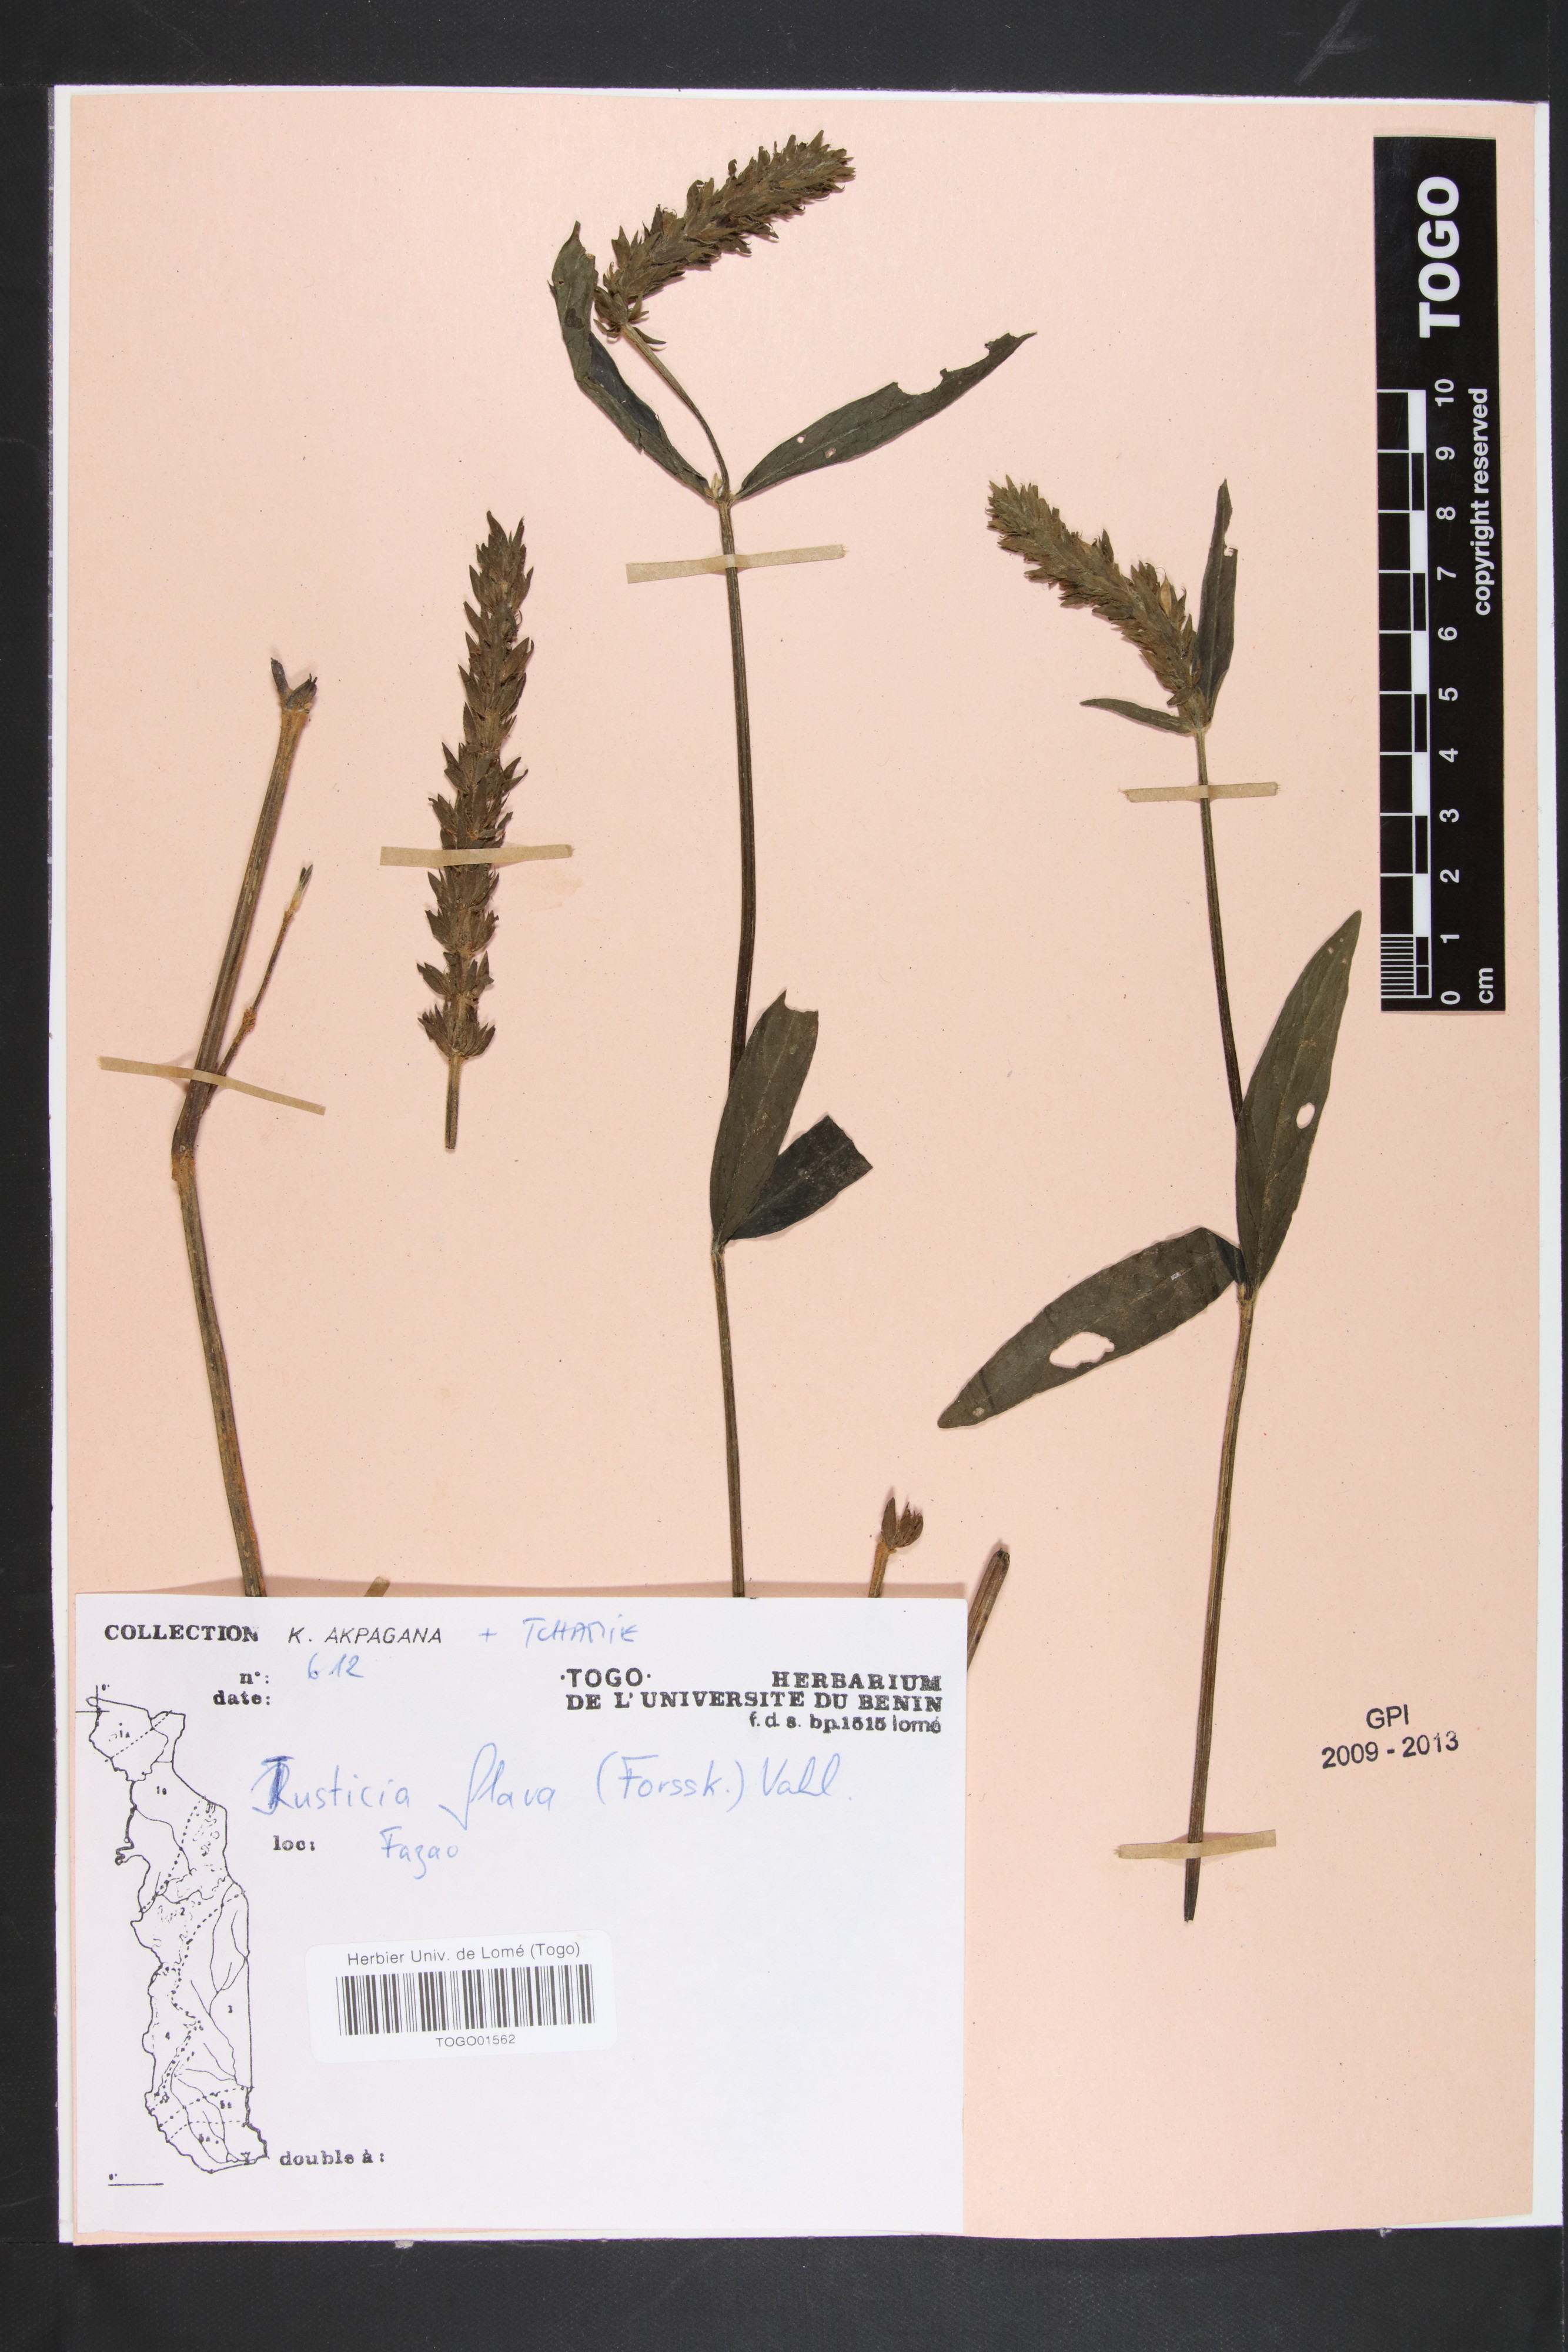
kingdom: Plantae
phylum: Tracheophyta
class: Magnoliopsida
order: Lamiales
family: Acanthaceae
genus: Justicia
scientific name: Justicia flava
